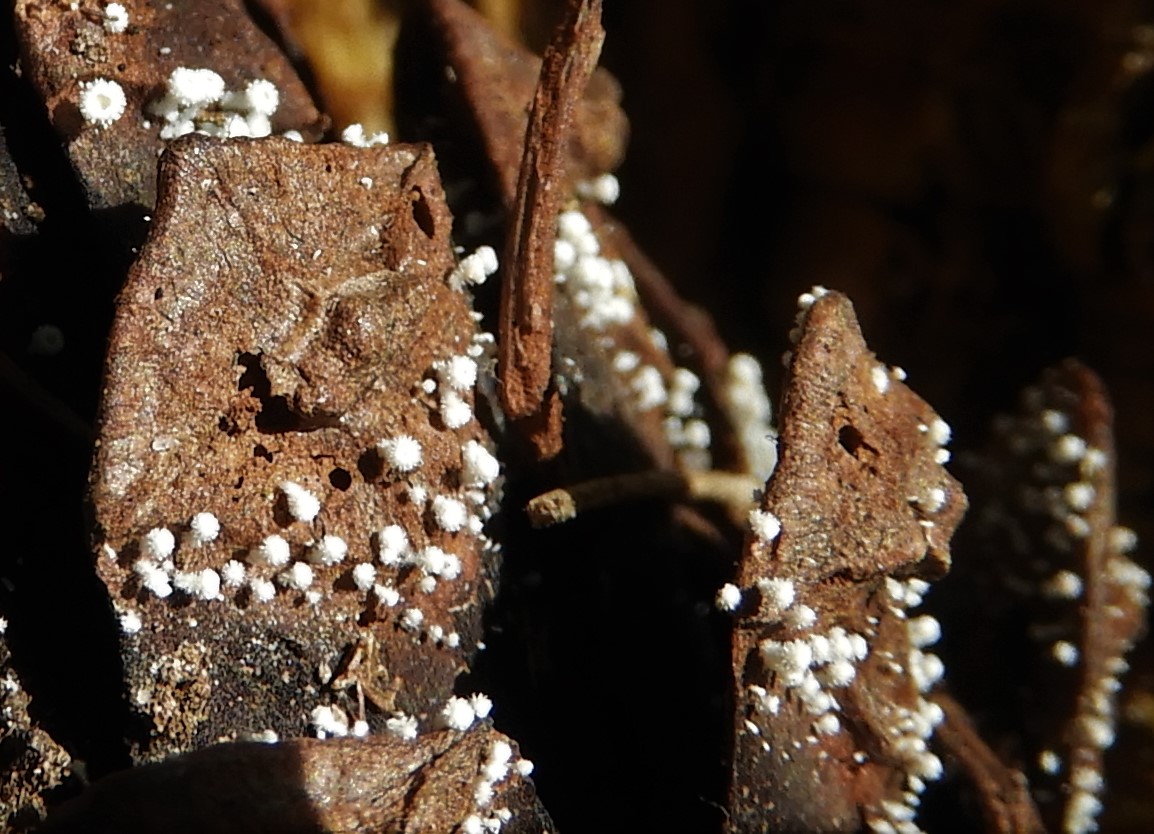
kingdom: Fungi
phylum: Ascomycota
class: Leotiomycetes
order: Helotiales
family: Lachnaceae
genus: Lachnum
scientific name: Lachnum virgineum
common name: jomfru-frynseskive
